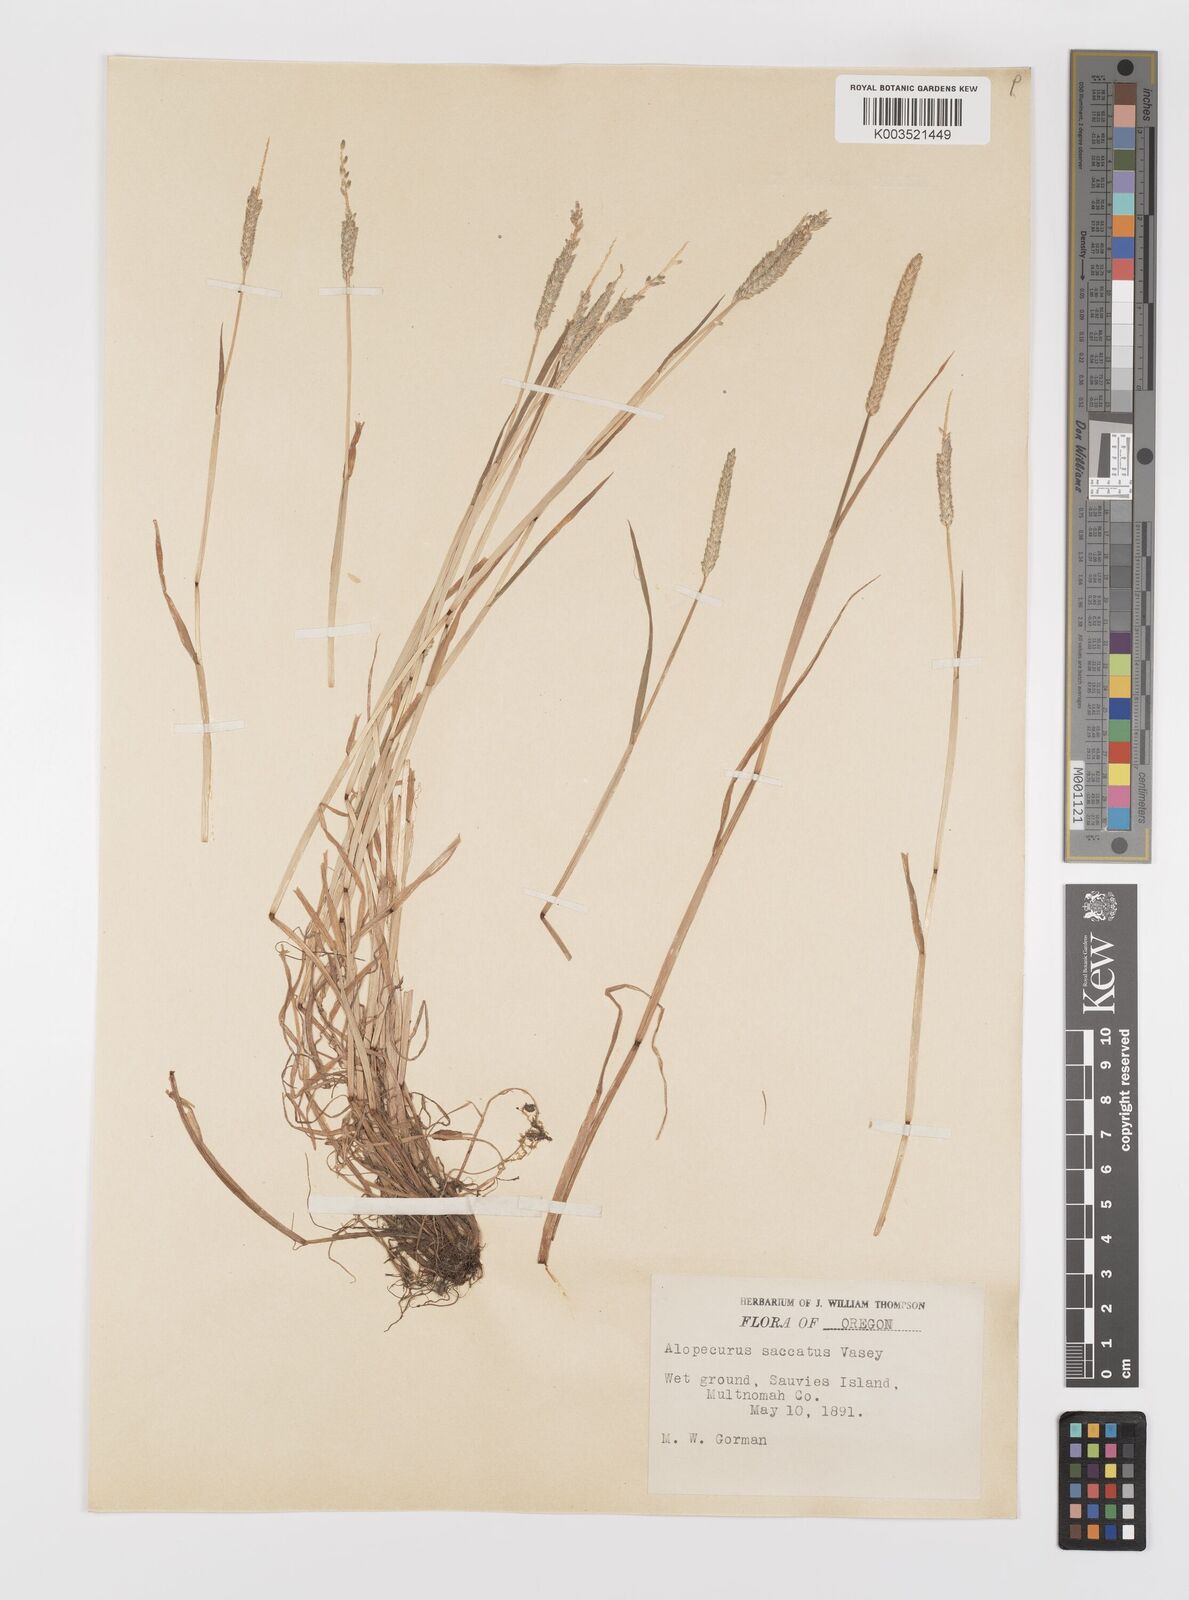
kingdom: Plantae
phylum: Tracheophyta
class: Liliopsida
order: Poales
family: Poaceae
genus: Alopecurus
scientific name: Alopecurus saccatus
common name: Pacific foxtail
